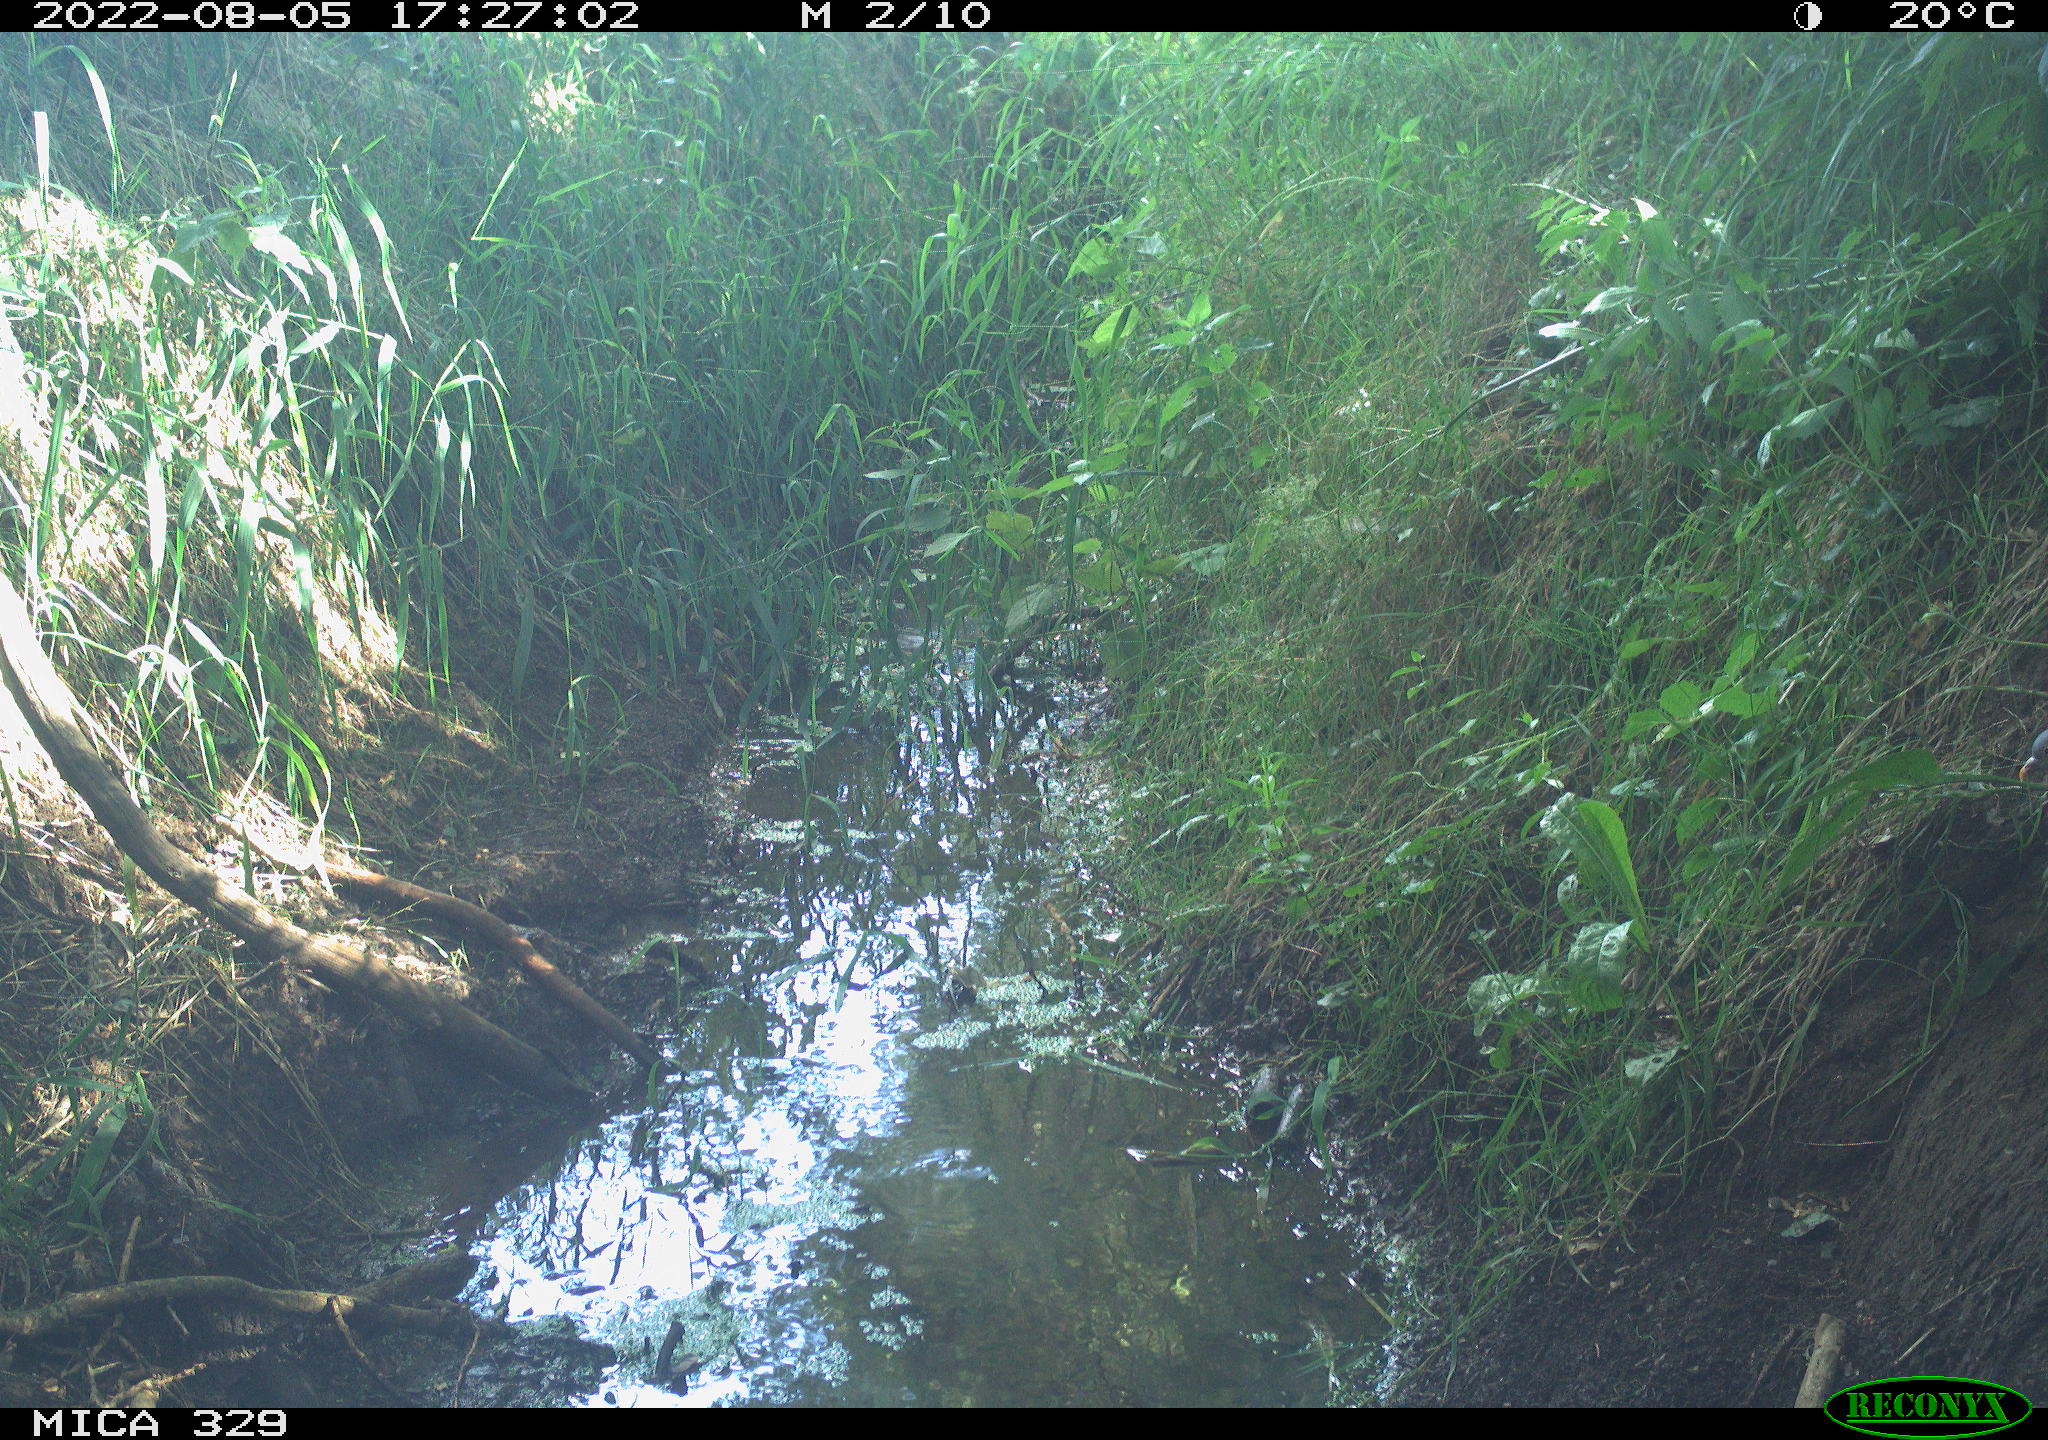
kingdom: Animalia
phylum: Chordata
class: Aves
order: Columbiformes
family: Columbidae
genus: Columba
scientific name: Columba palumbus
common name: Common wood pigeon
